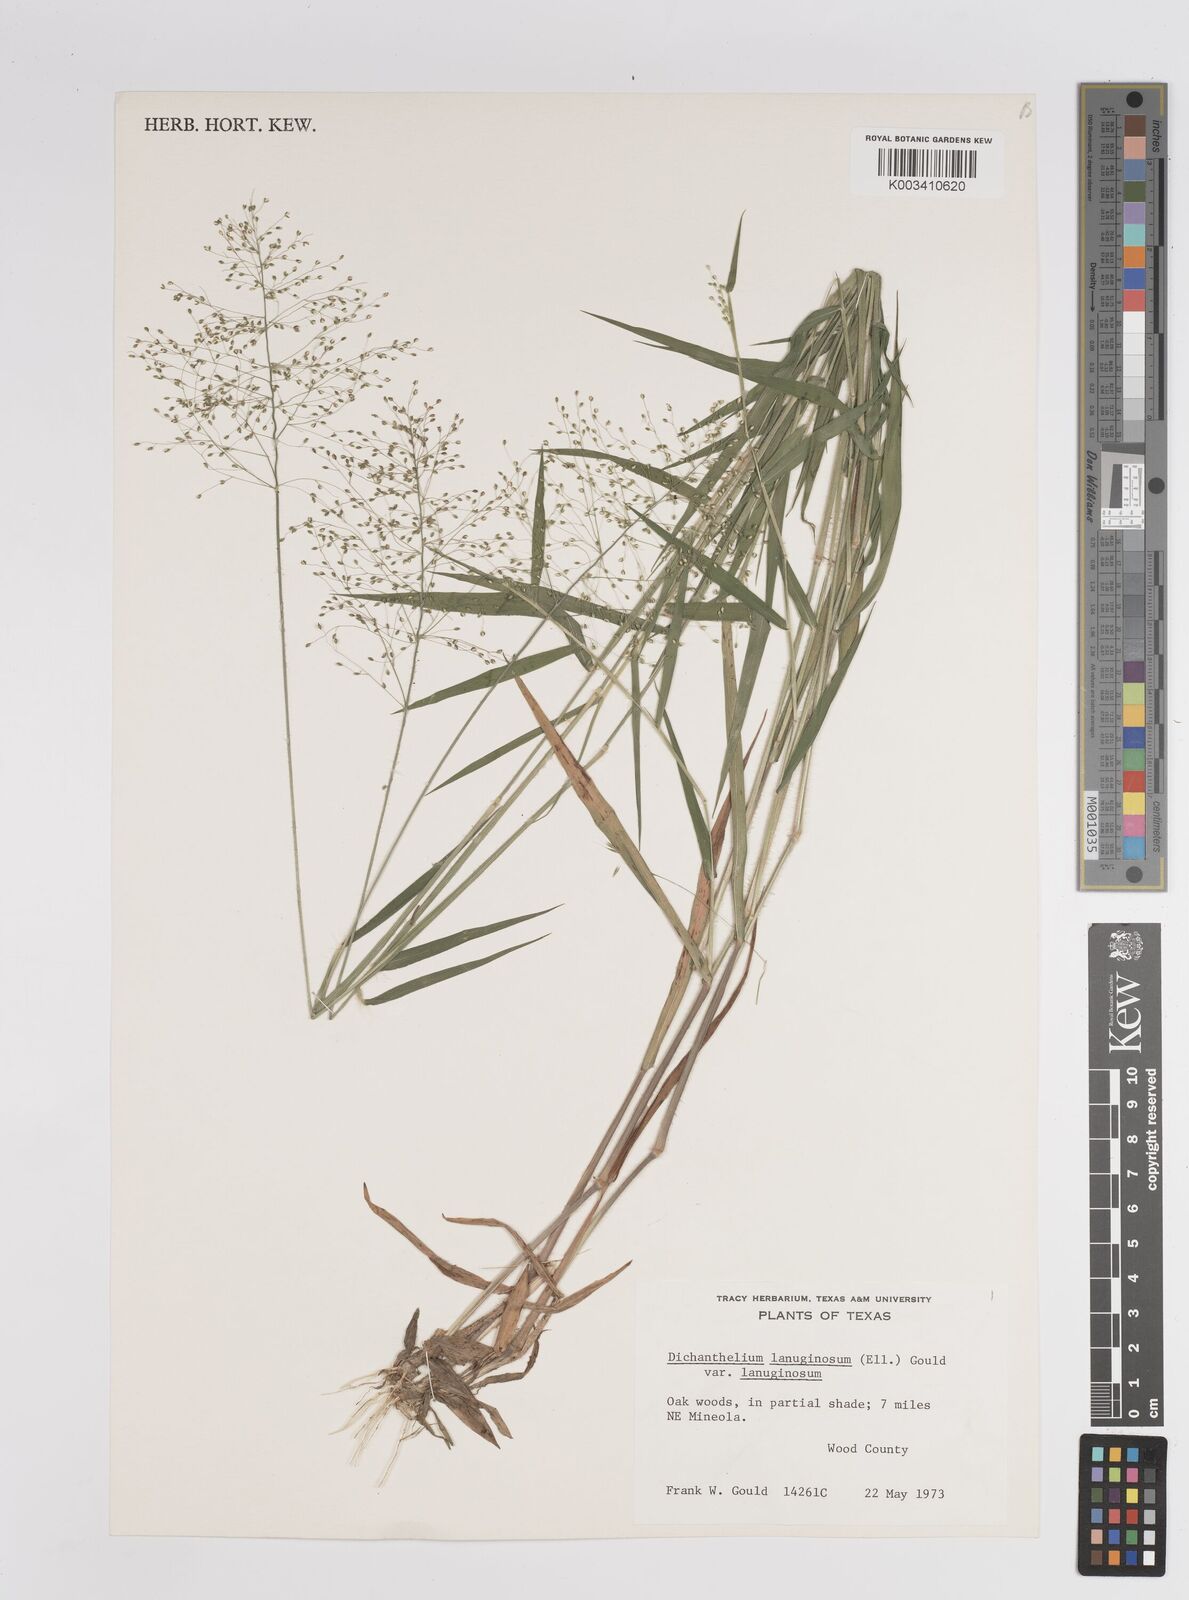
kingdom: Plantae
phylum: Tracheophyta
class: Liliopsida
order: Poales
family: Poaceae
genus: Dichanthelium
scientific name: Dichanthelium lanuginosum
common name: Woolly panicgrass
